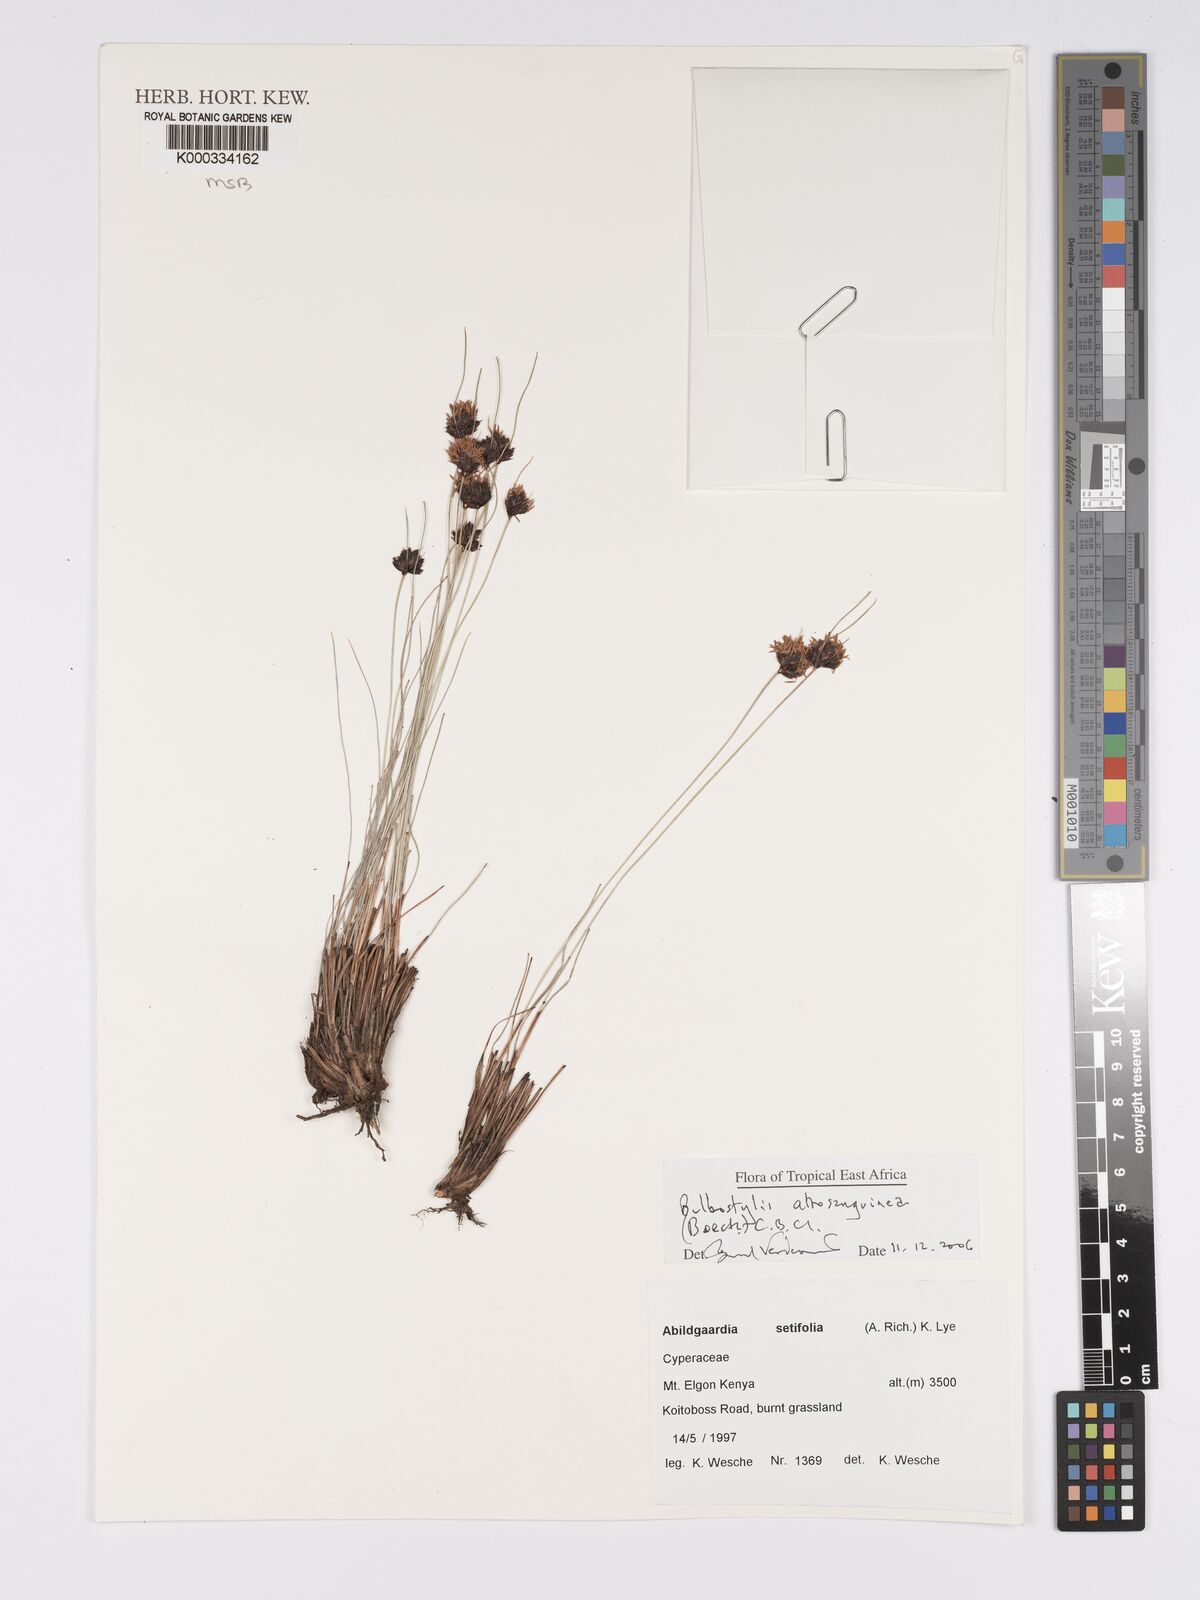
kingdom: Plantae
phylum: Tracheophyta
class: Liliopsida
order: Poales
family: Cyperaceae
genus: Bulbostylis
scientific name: Bulbostylis atrosanguinea
